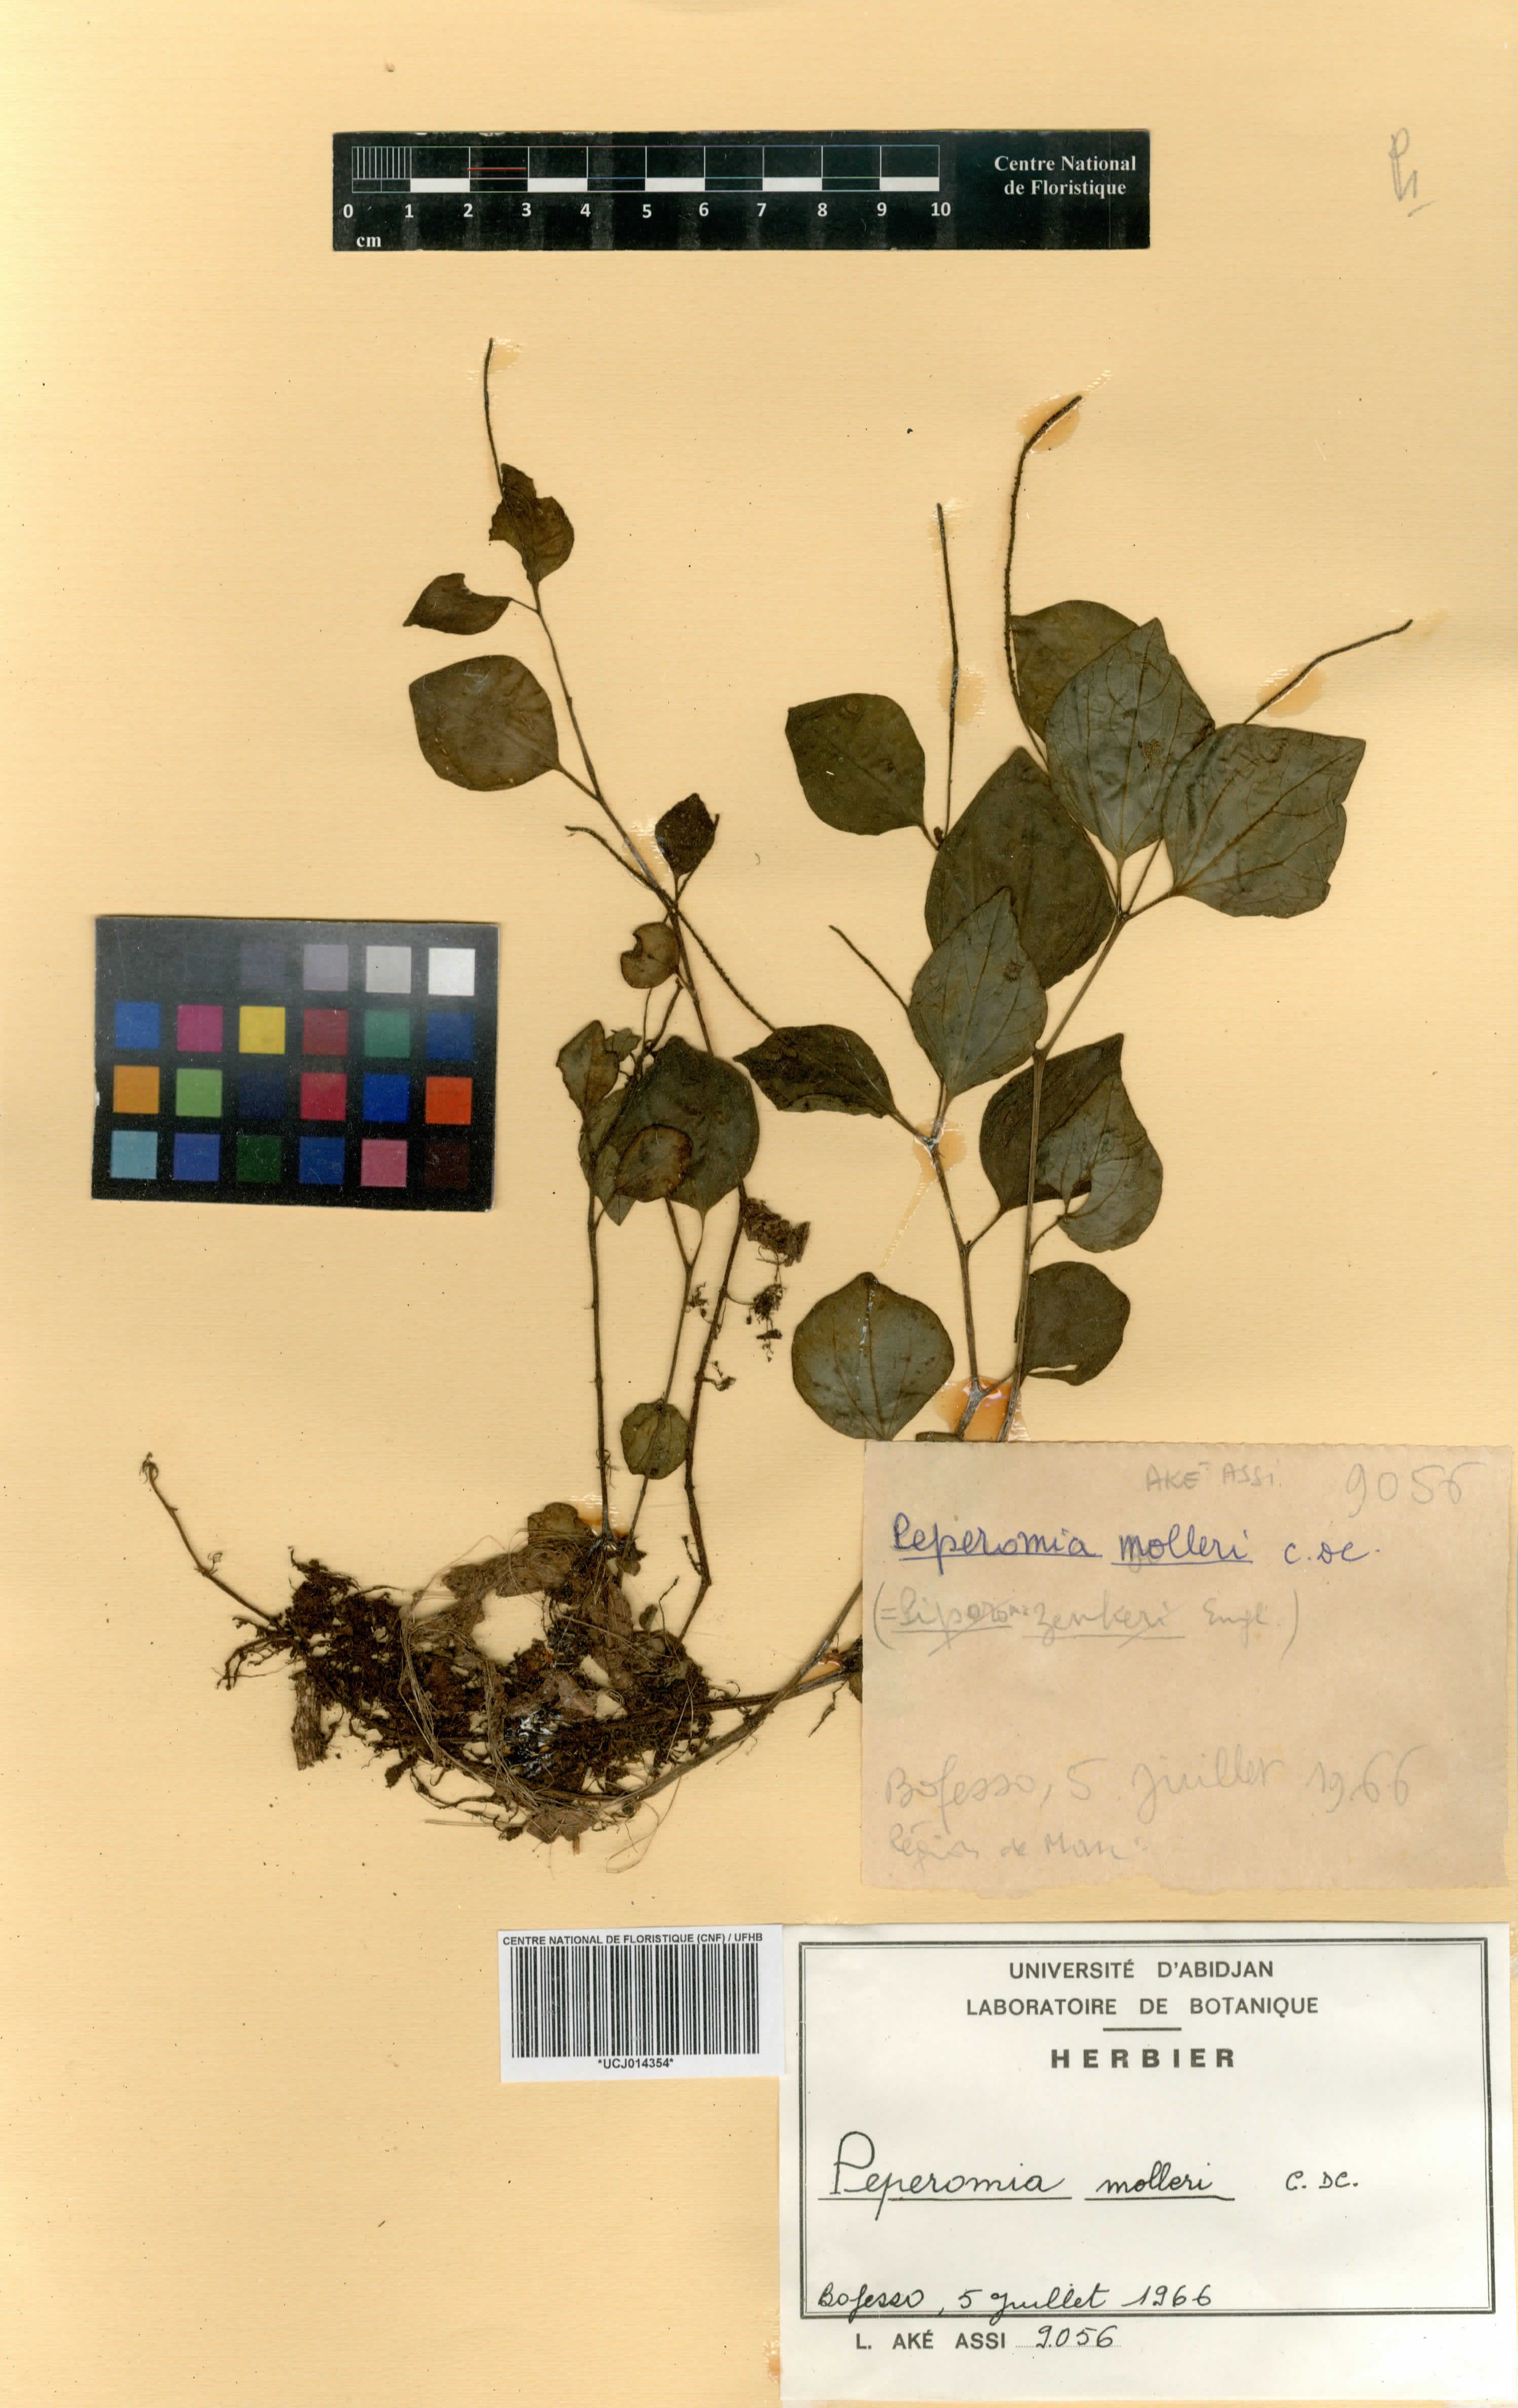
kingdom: Plantae
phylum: Tracheophyta
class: Magnoliopsida
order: Piperales
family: Piperaceae
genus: Peperomia
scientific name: Peperomia molleri
